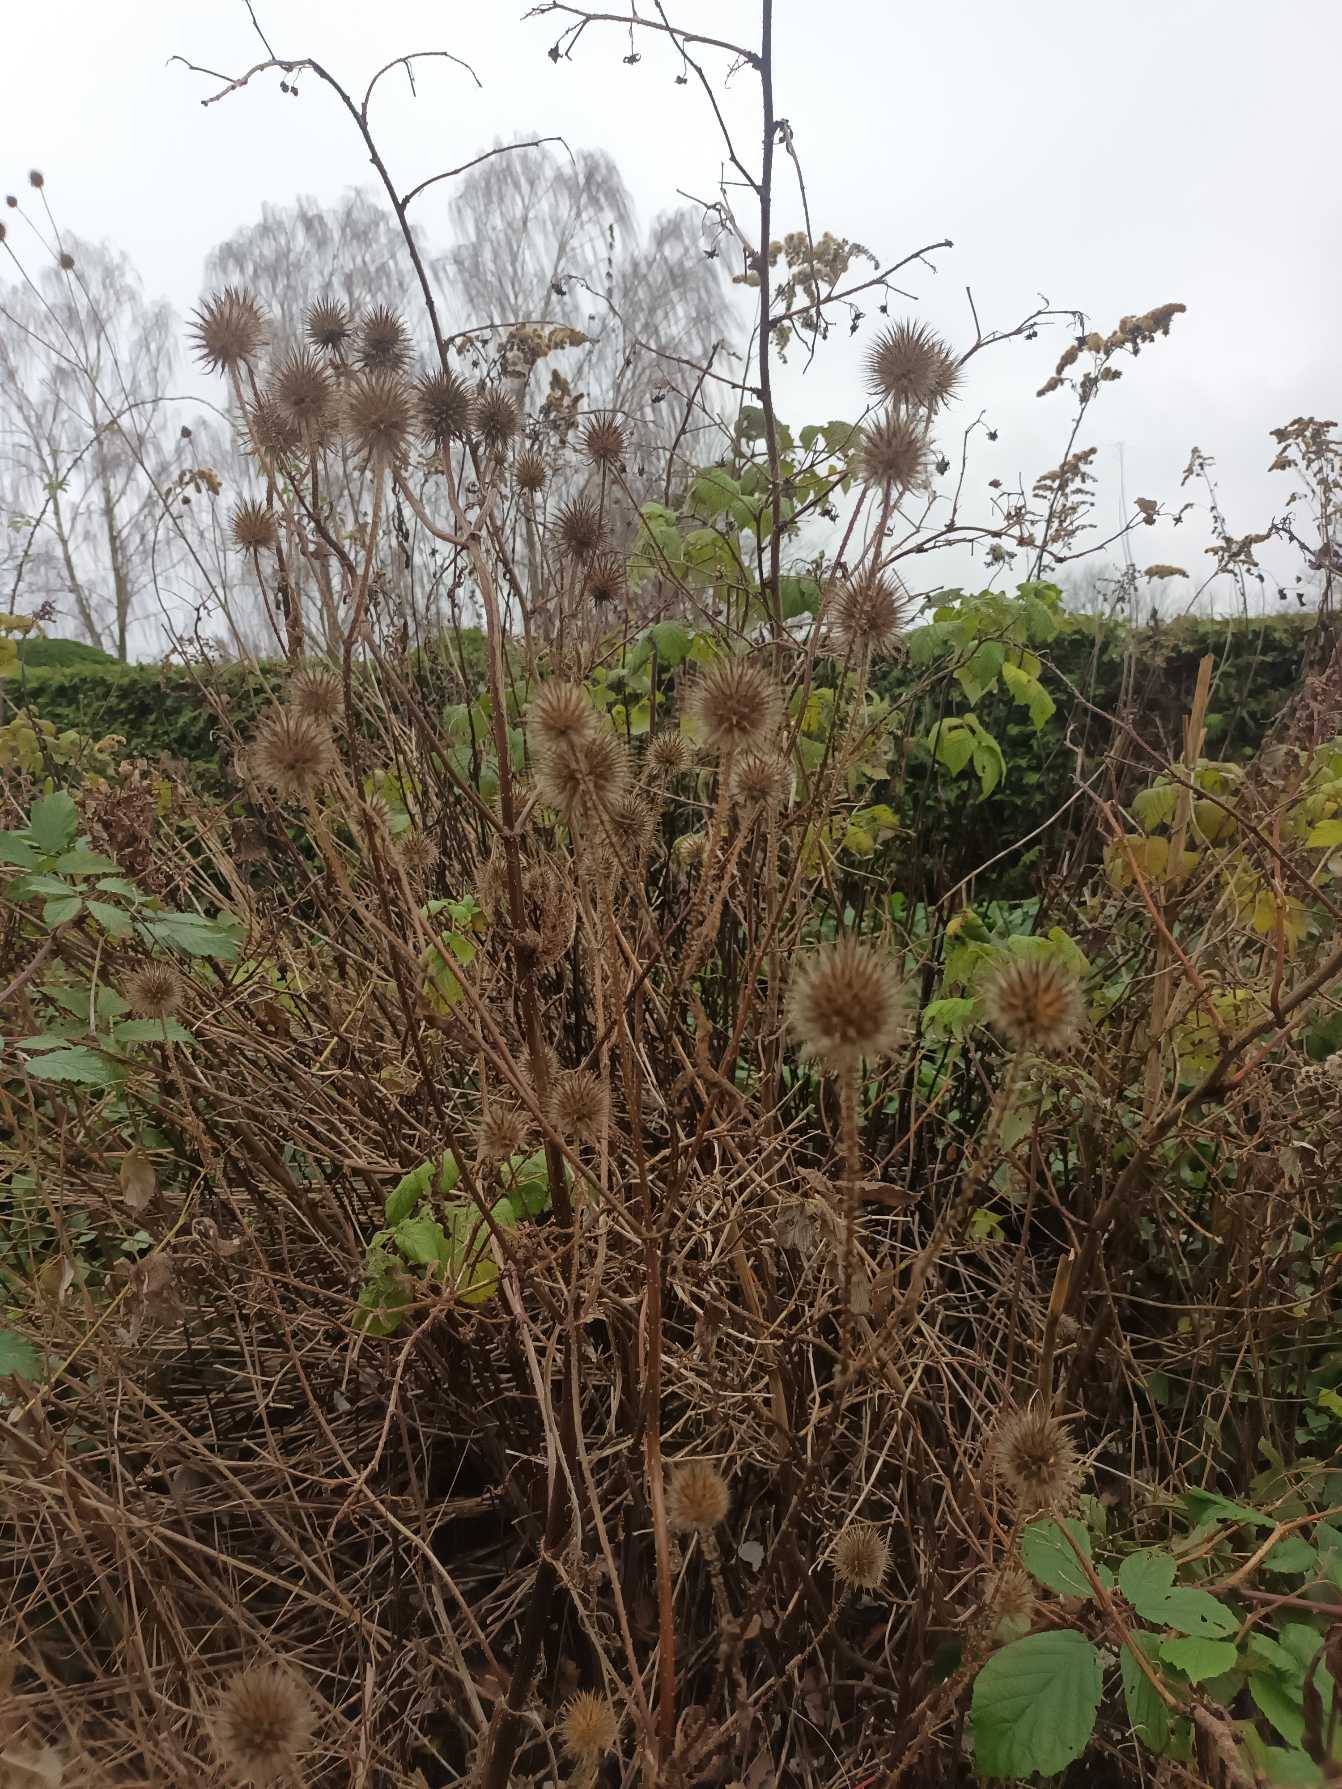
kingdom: Plantae
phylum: Tracheophyta
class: Magnoliopsida
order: Dipsacales
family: Caprifoliaceae
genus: Dipsacus
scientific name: Dipsacus strigosus
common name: Pindsvin-kartebolle
